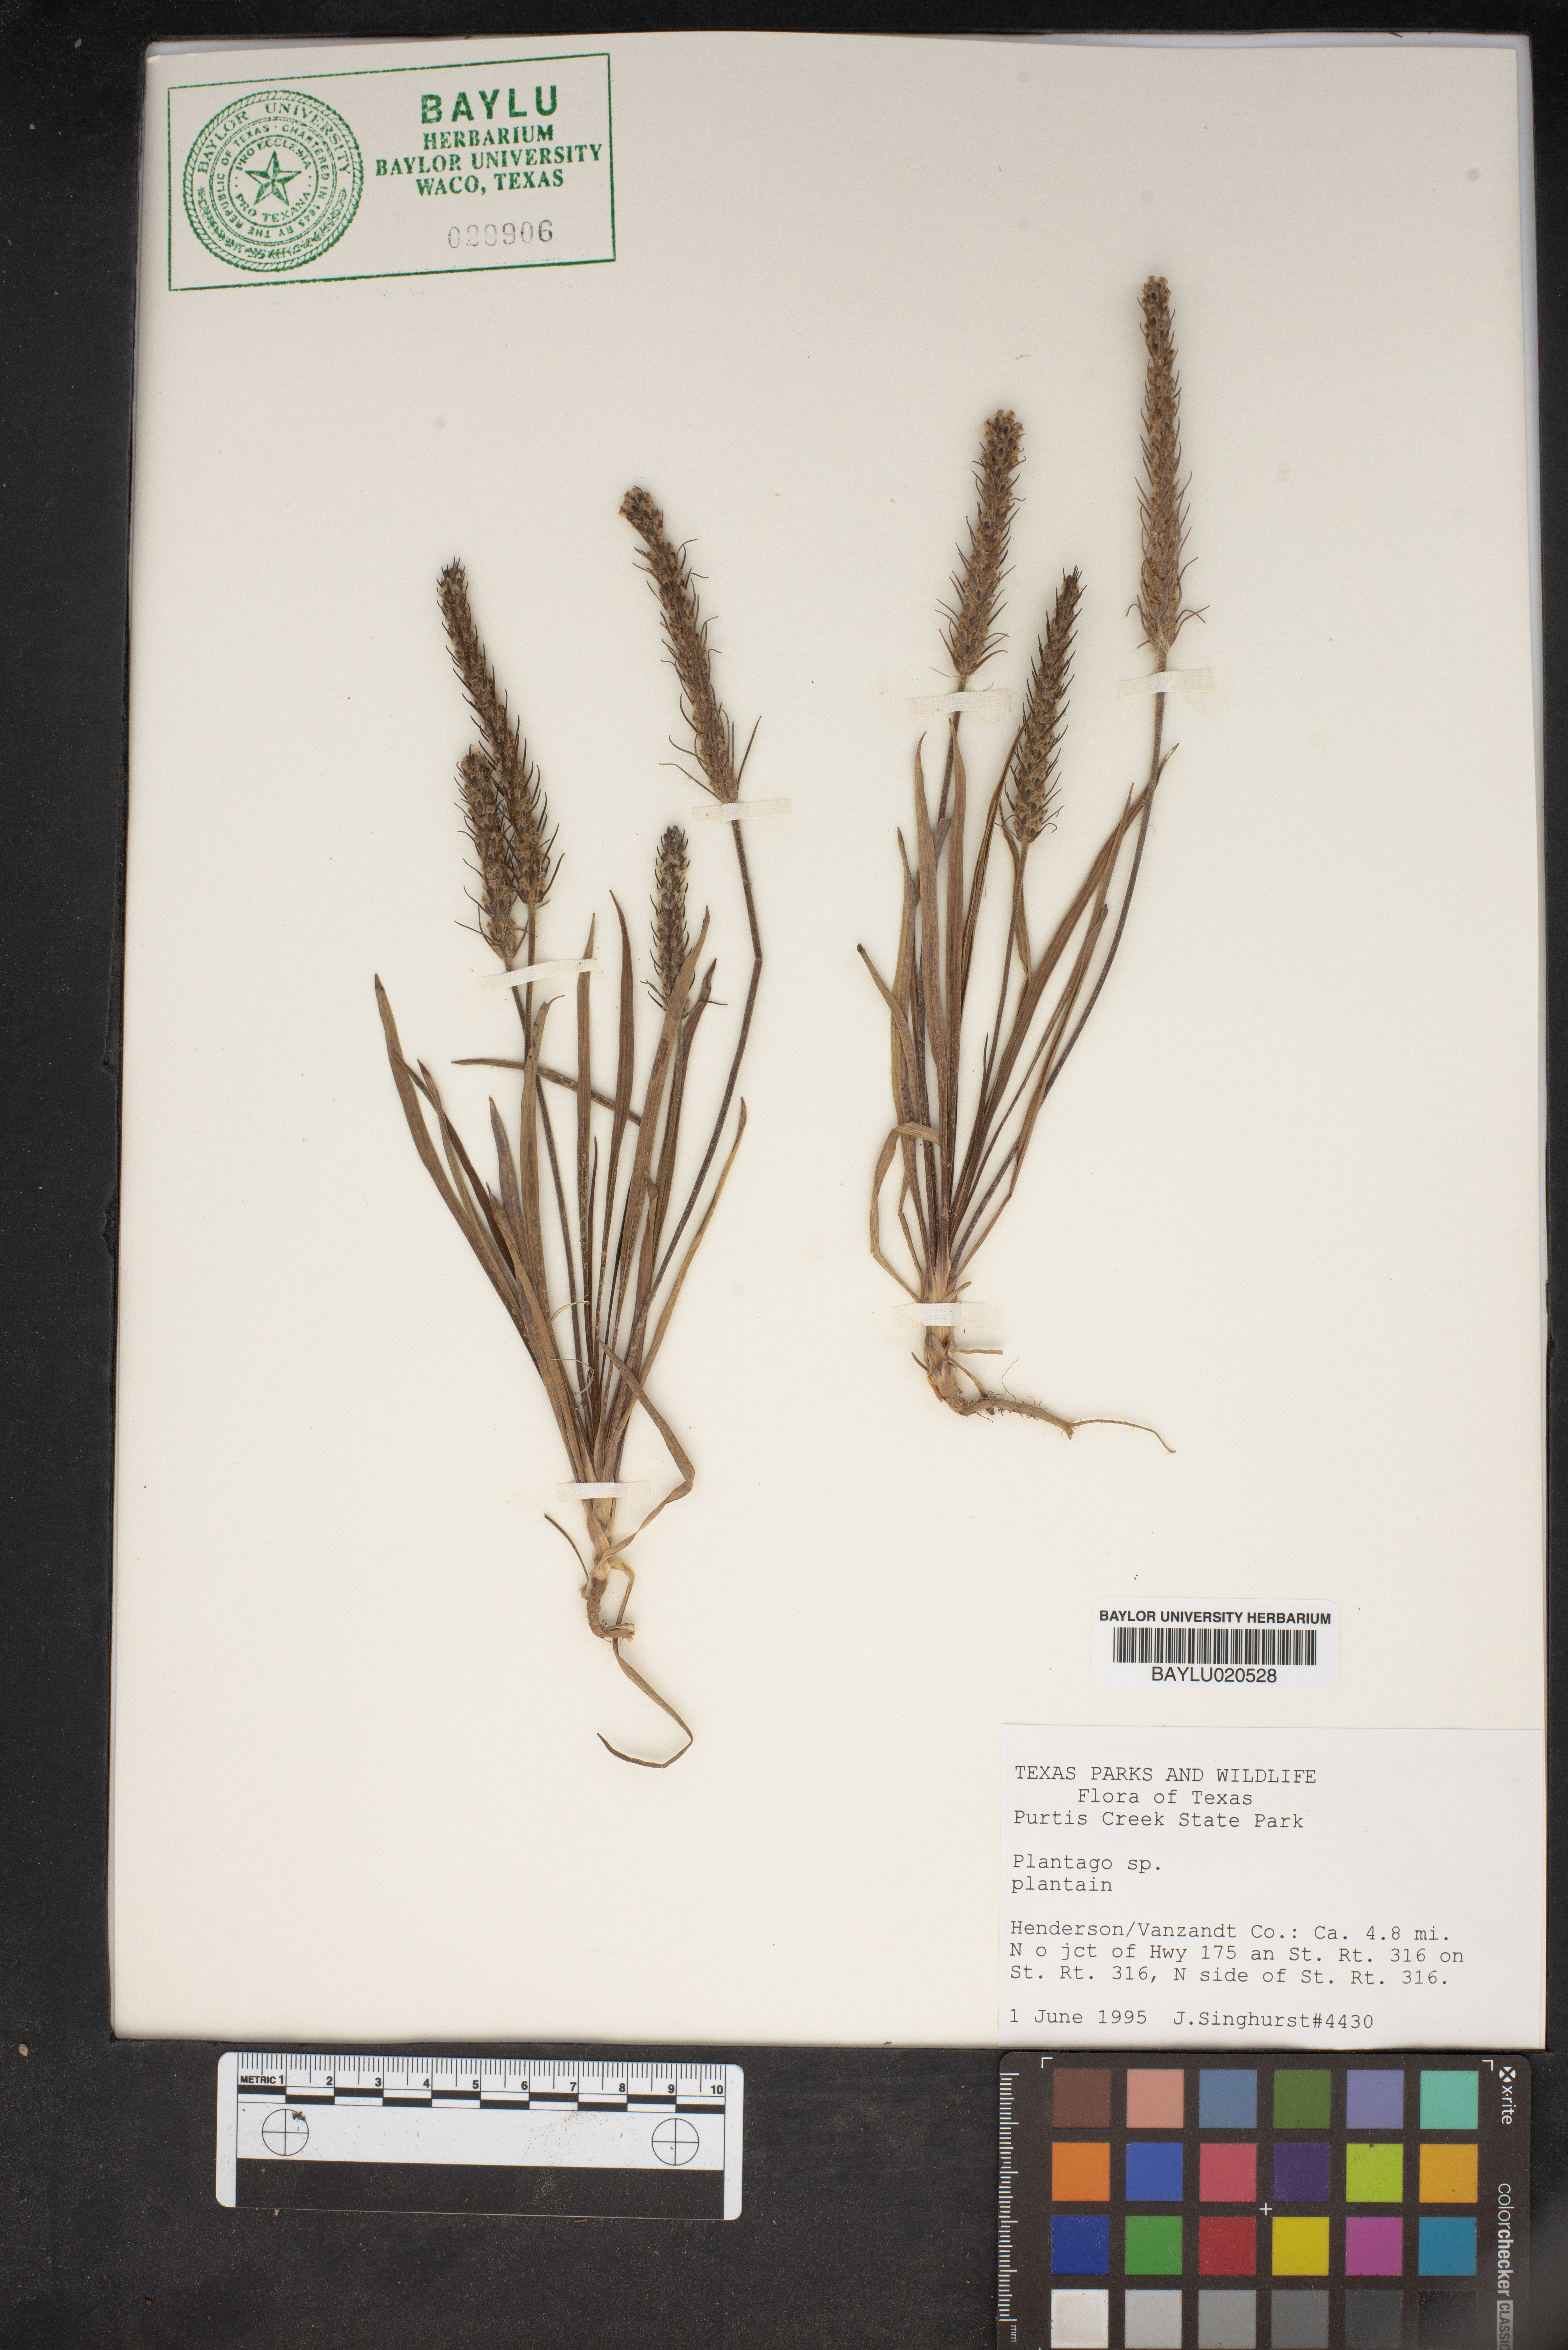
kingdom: Plantae
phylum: Tracheophyta
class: Magnoliopsida
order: Lamiales
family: Plantaginaceae
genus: Plantago
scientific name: Plantago
